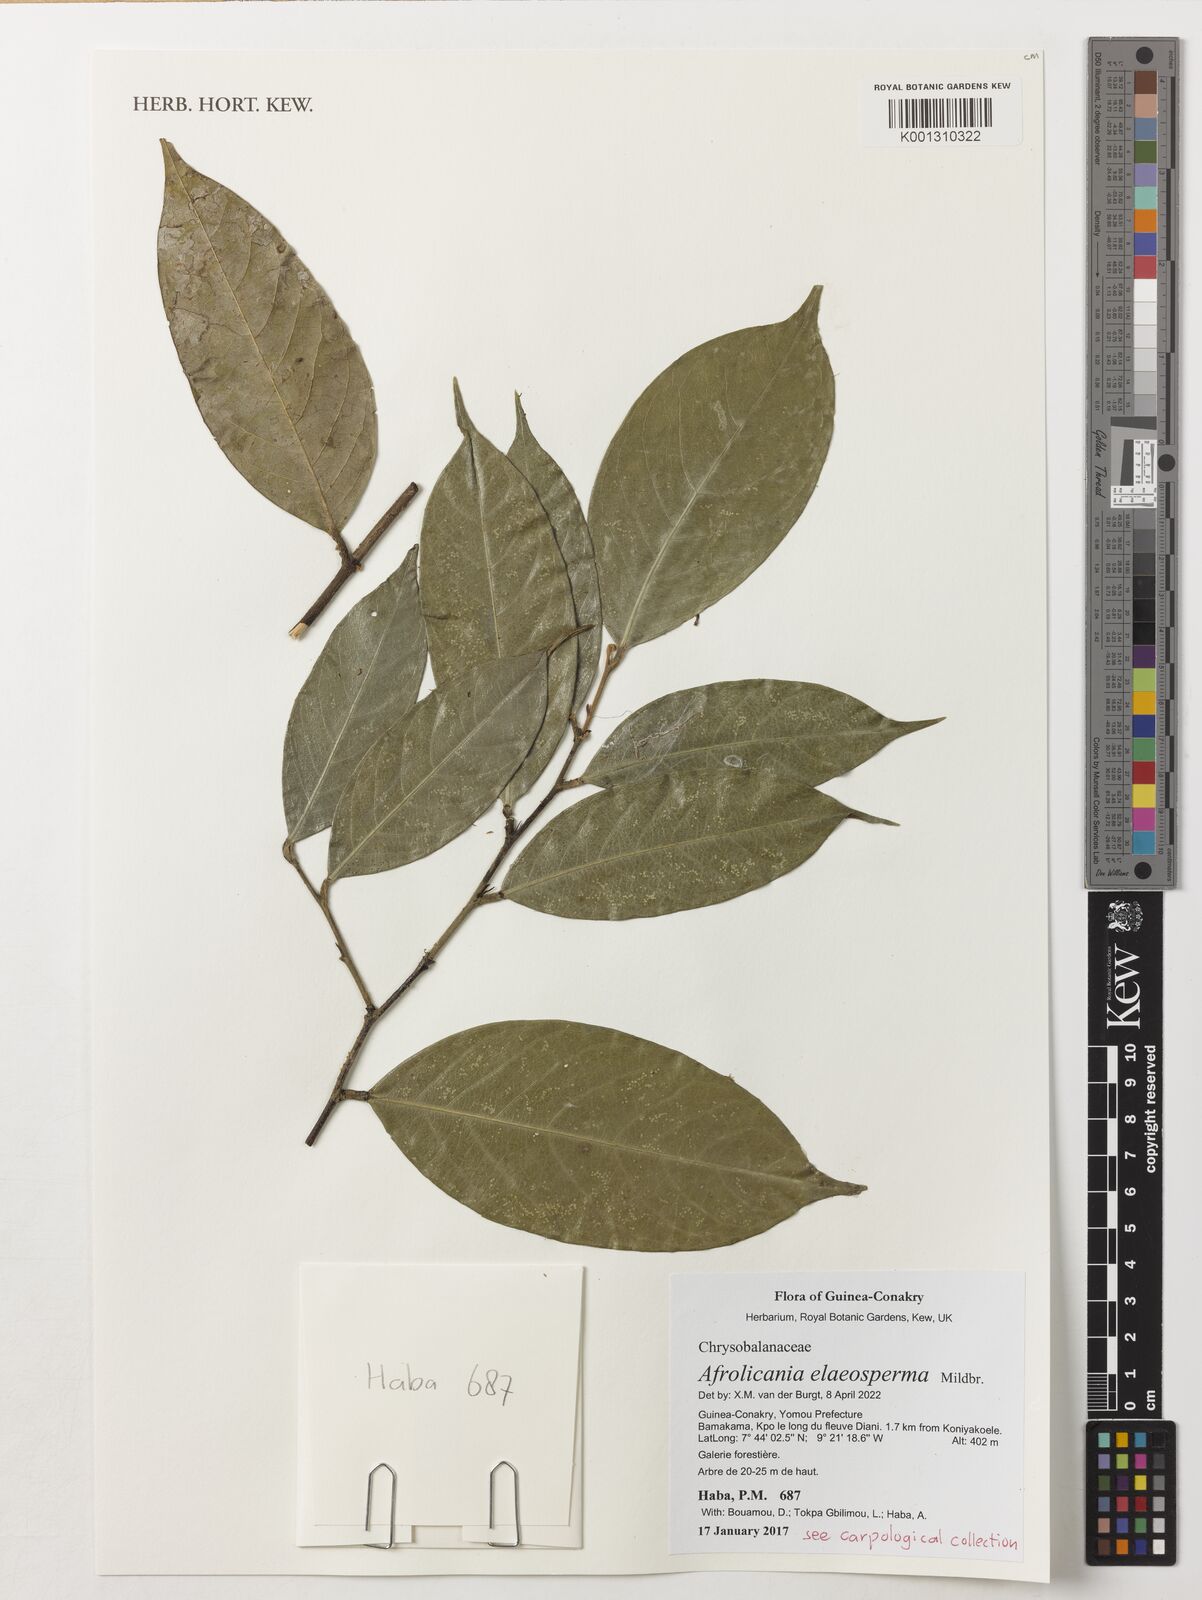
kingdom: Plantae
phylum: Tracheophyta
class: Magnoliopsida
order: Malpighiales
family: Chrysobalanaceae
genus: Afrolicania
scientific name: Afrolicania elaeosperma
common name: Nikko
